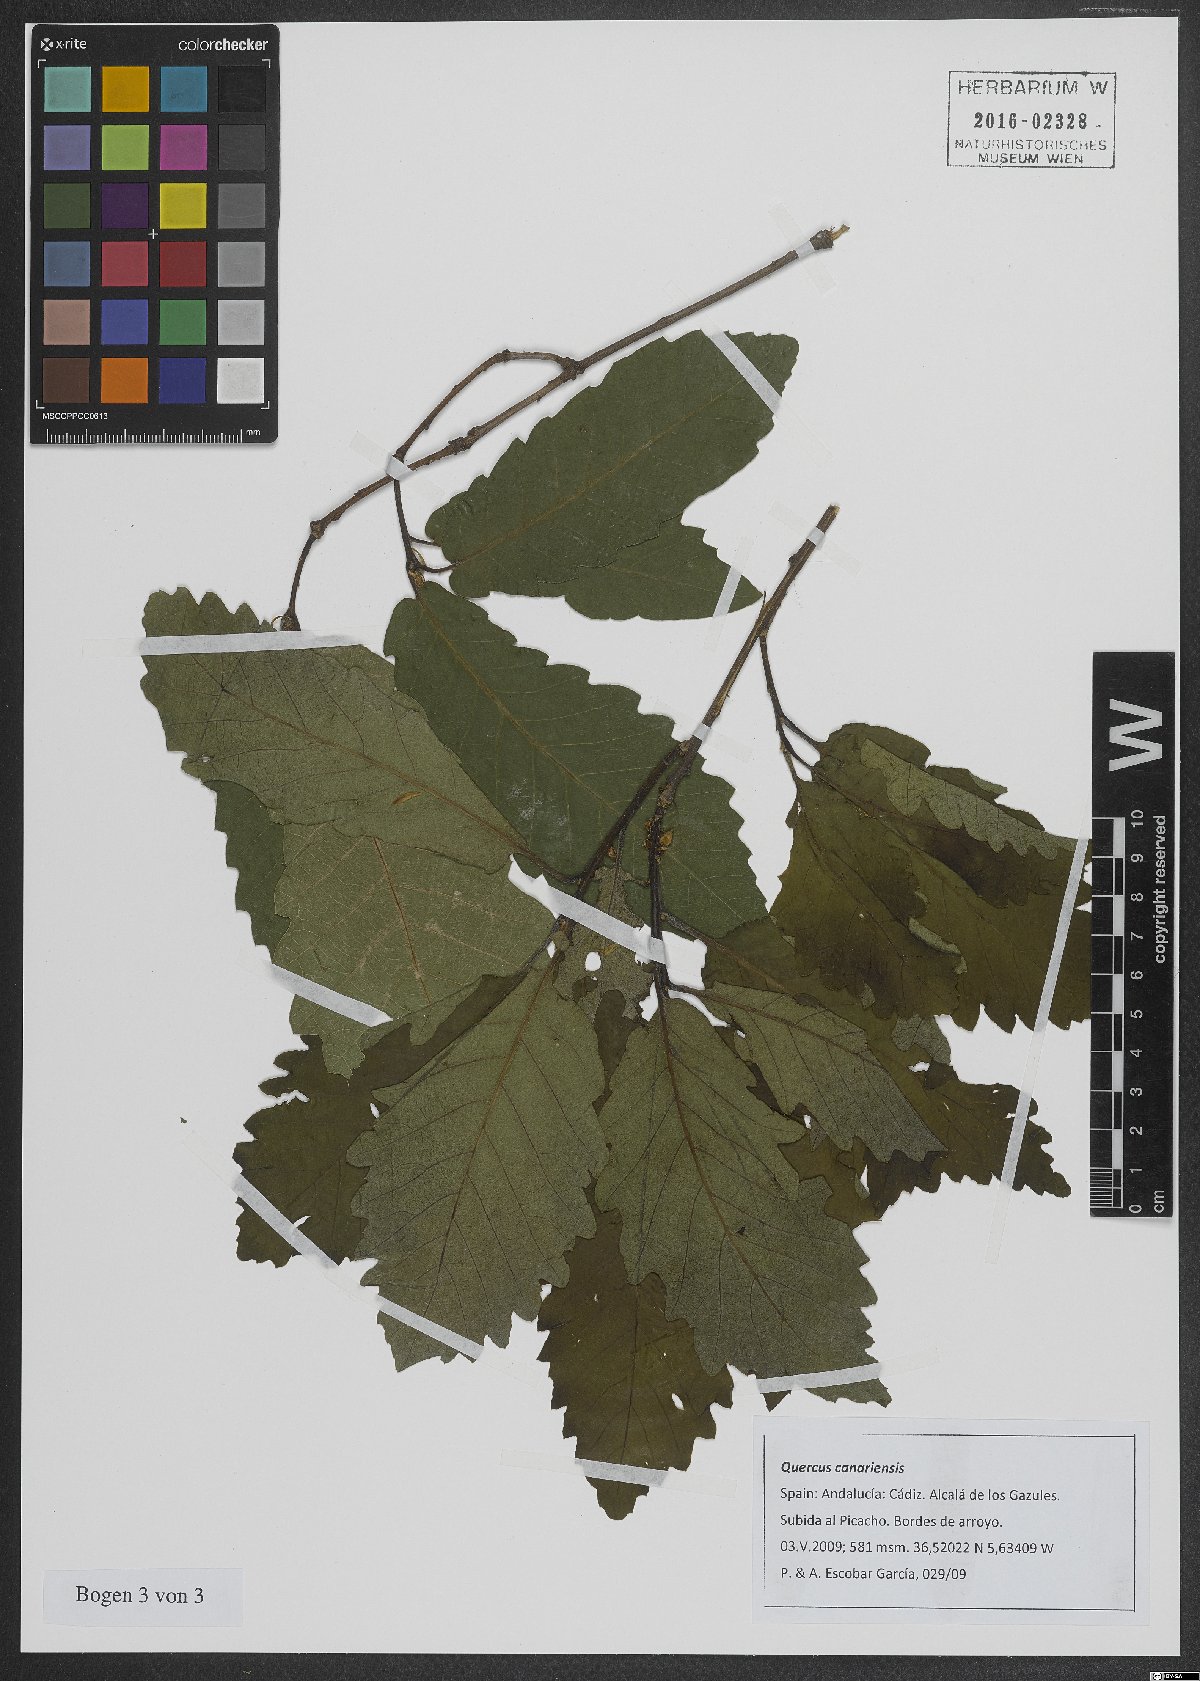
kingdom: Plantae
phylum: Tracheophyta
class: Magnoliopsida
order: Fagales
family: Fagaceae
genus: Quercus
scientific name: Quercus canariensis
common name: Algerian oak
